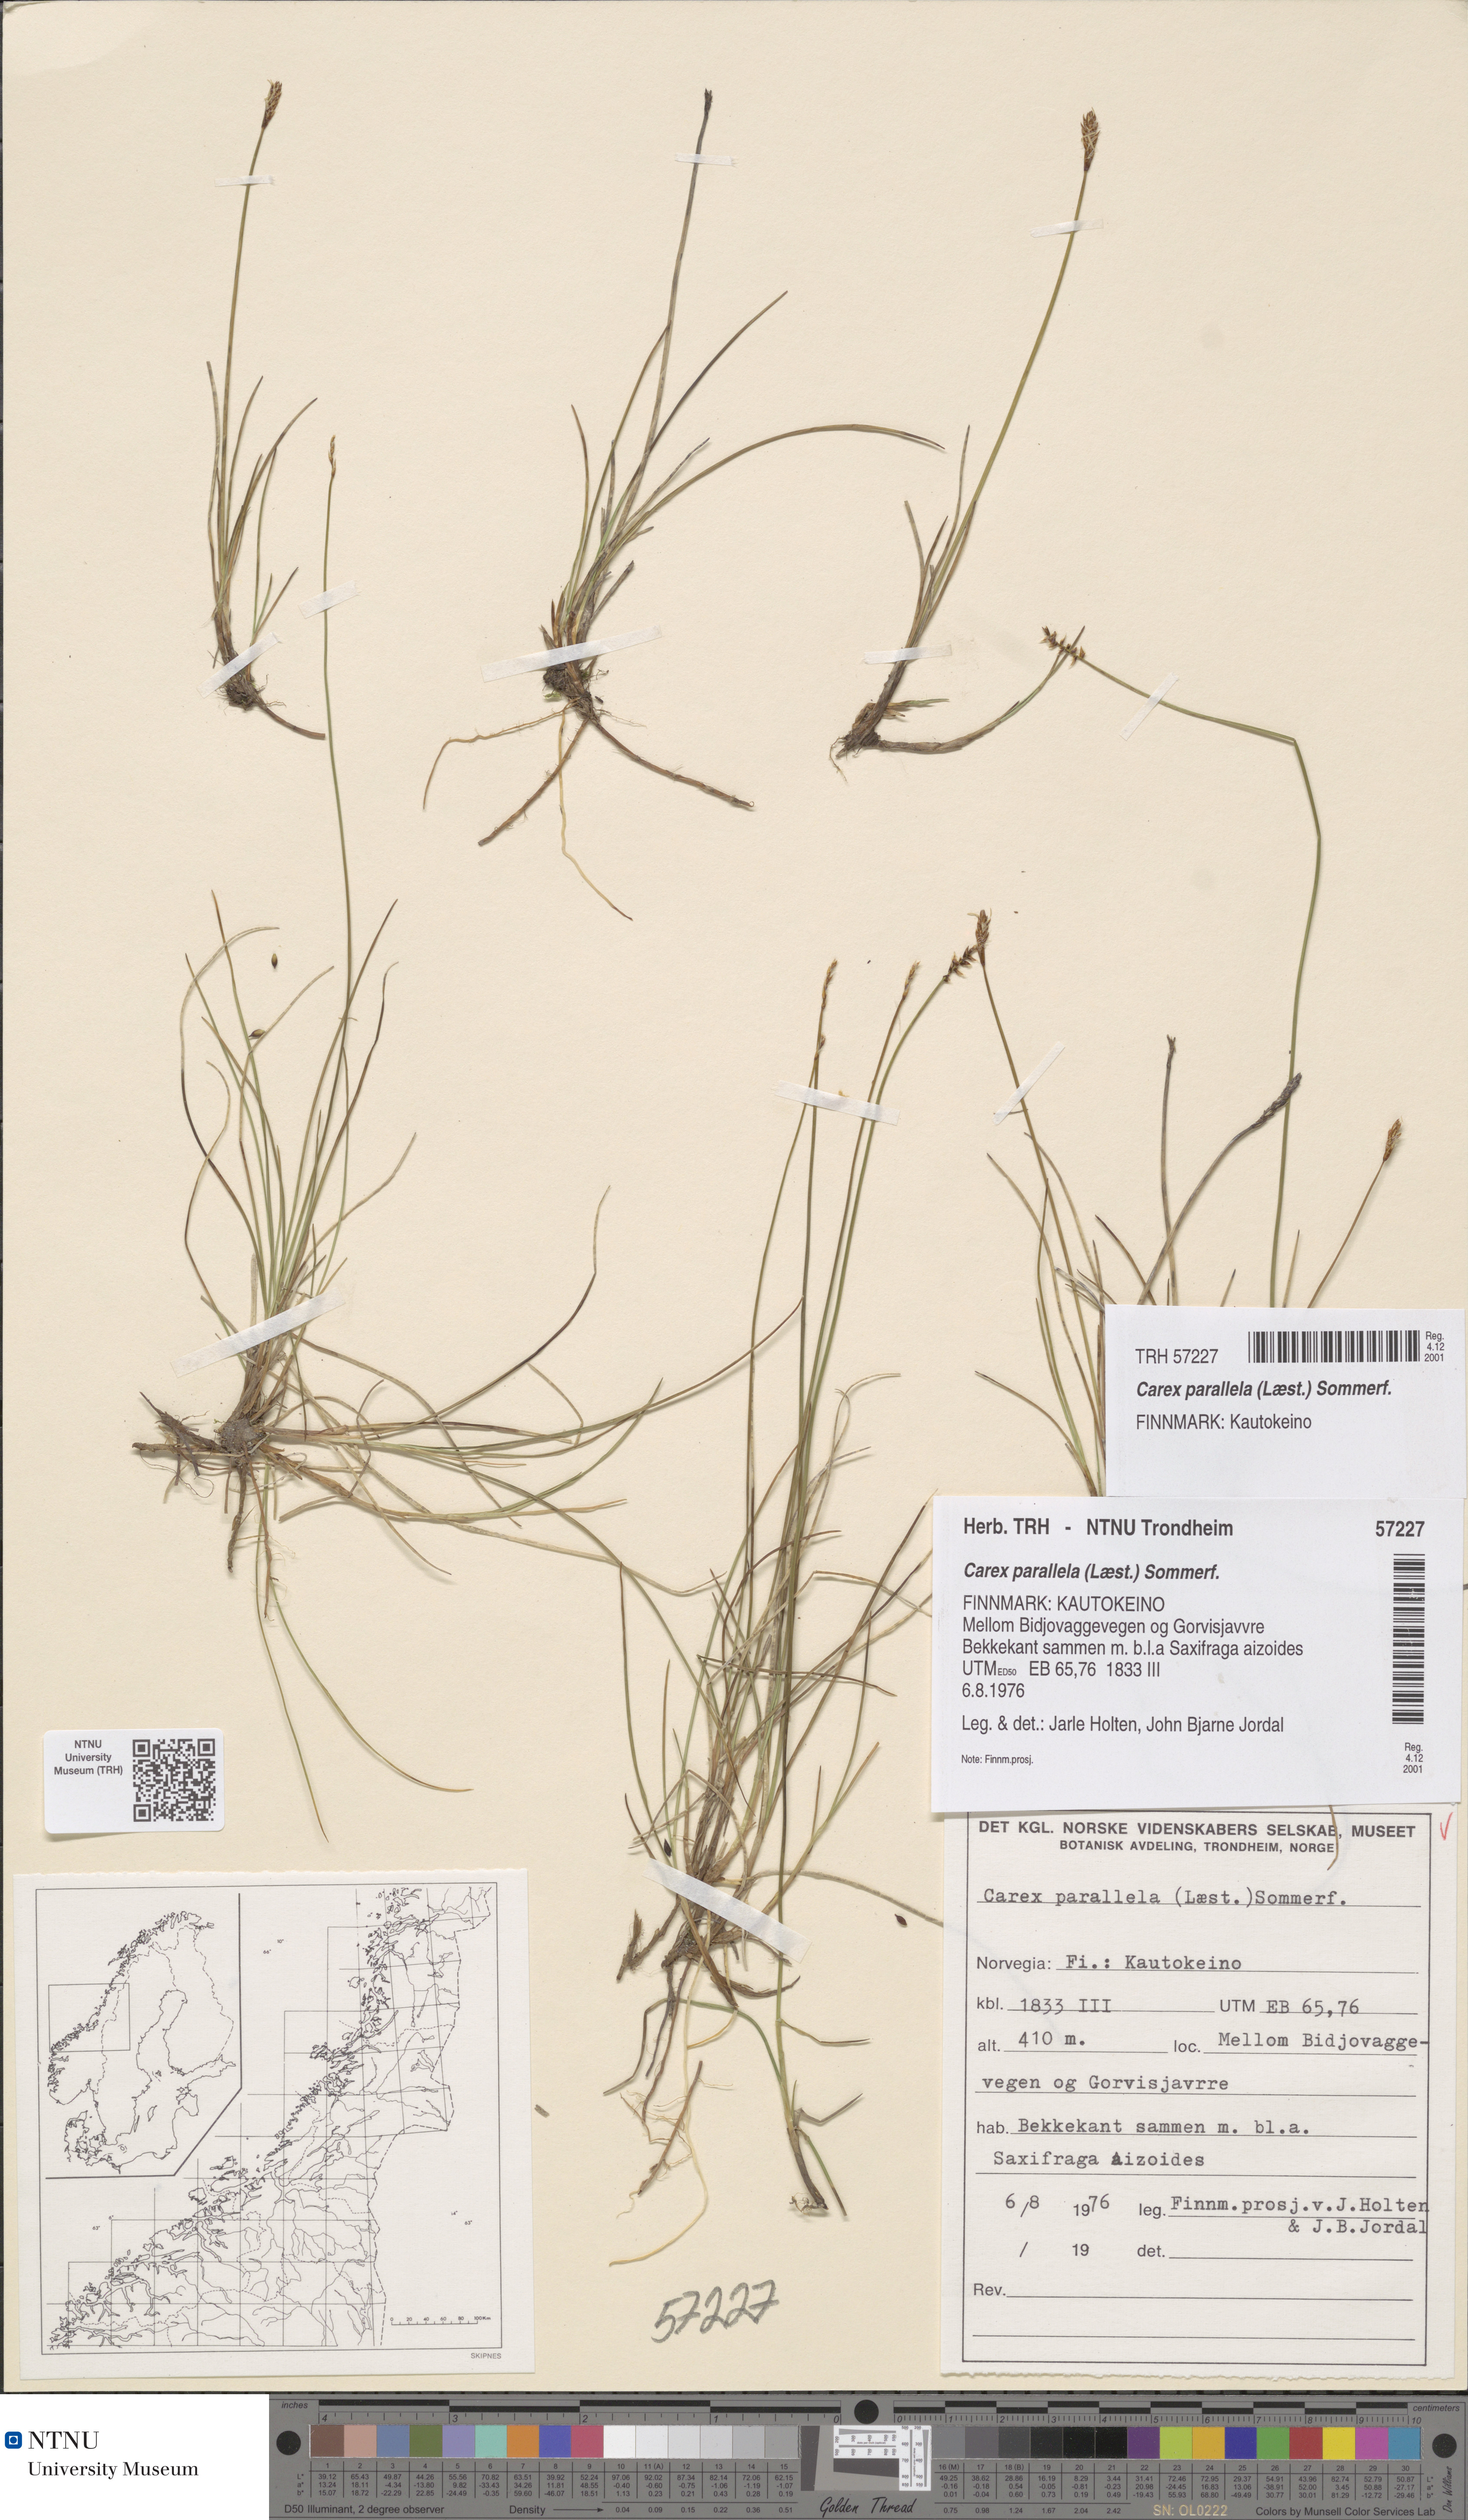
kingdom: Plantae
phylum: Tracheophyta
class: Liliopsida
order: Poales
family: Cyperaceae
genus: Carex
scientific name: Carex parallela
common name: Parallel sedge
